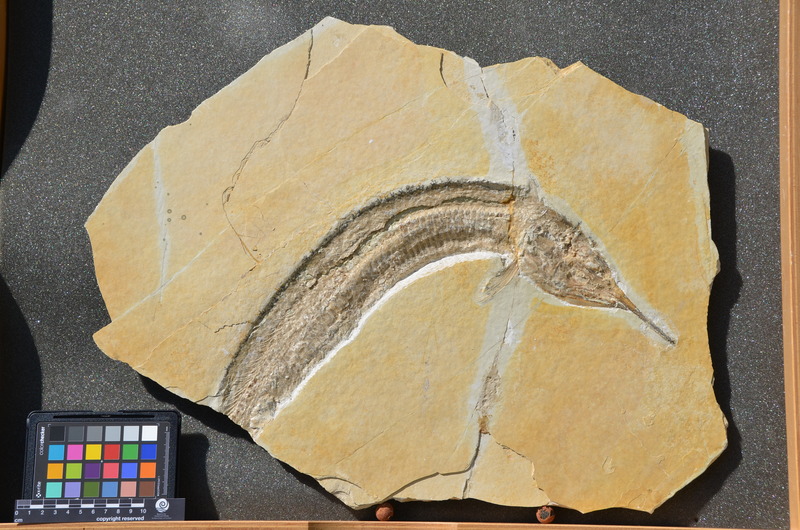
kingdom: Animalia
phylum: Chordata
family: Aspidorhynchidae
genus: Aspidorhynchus
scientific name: Aspidorhynchus
